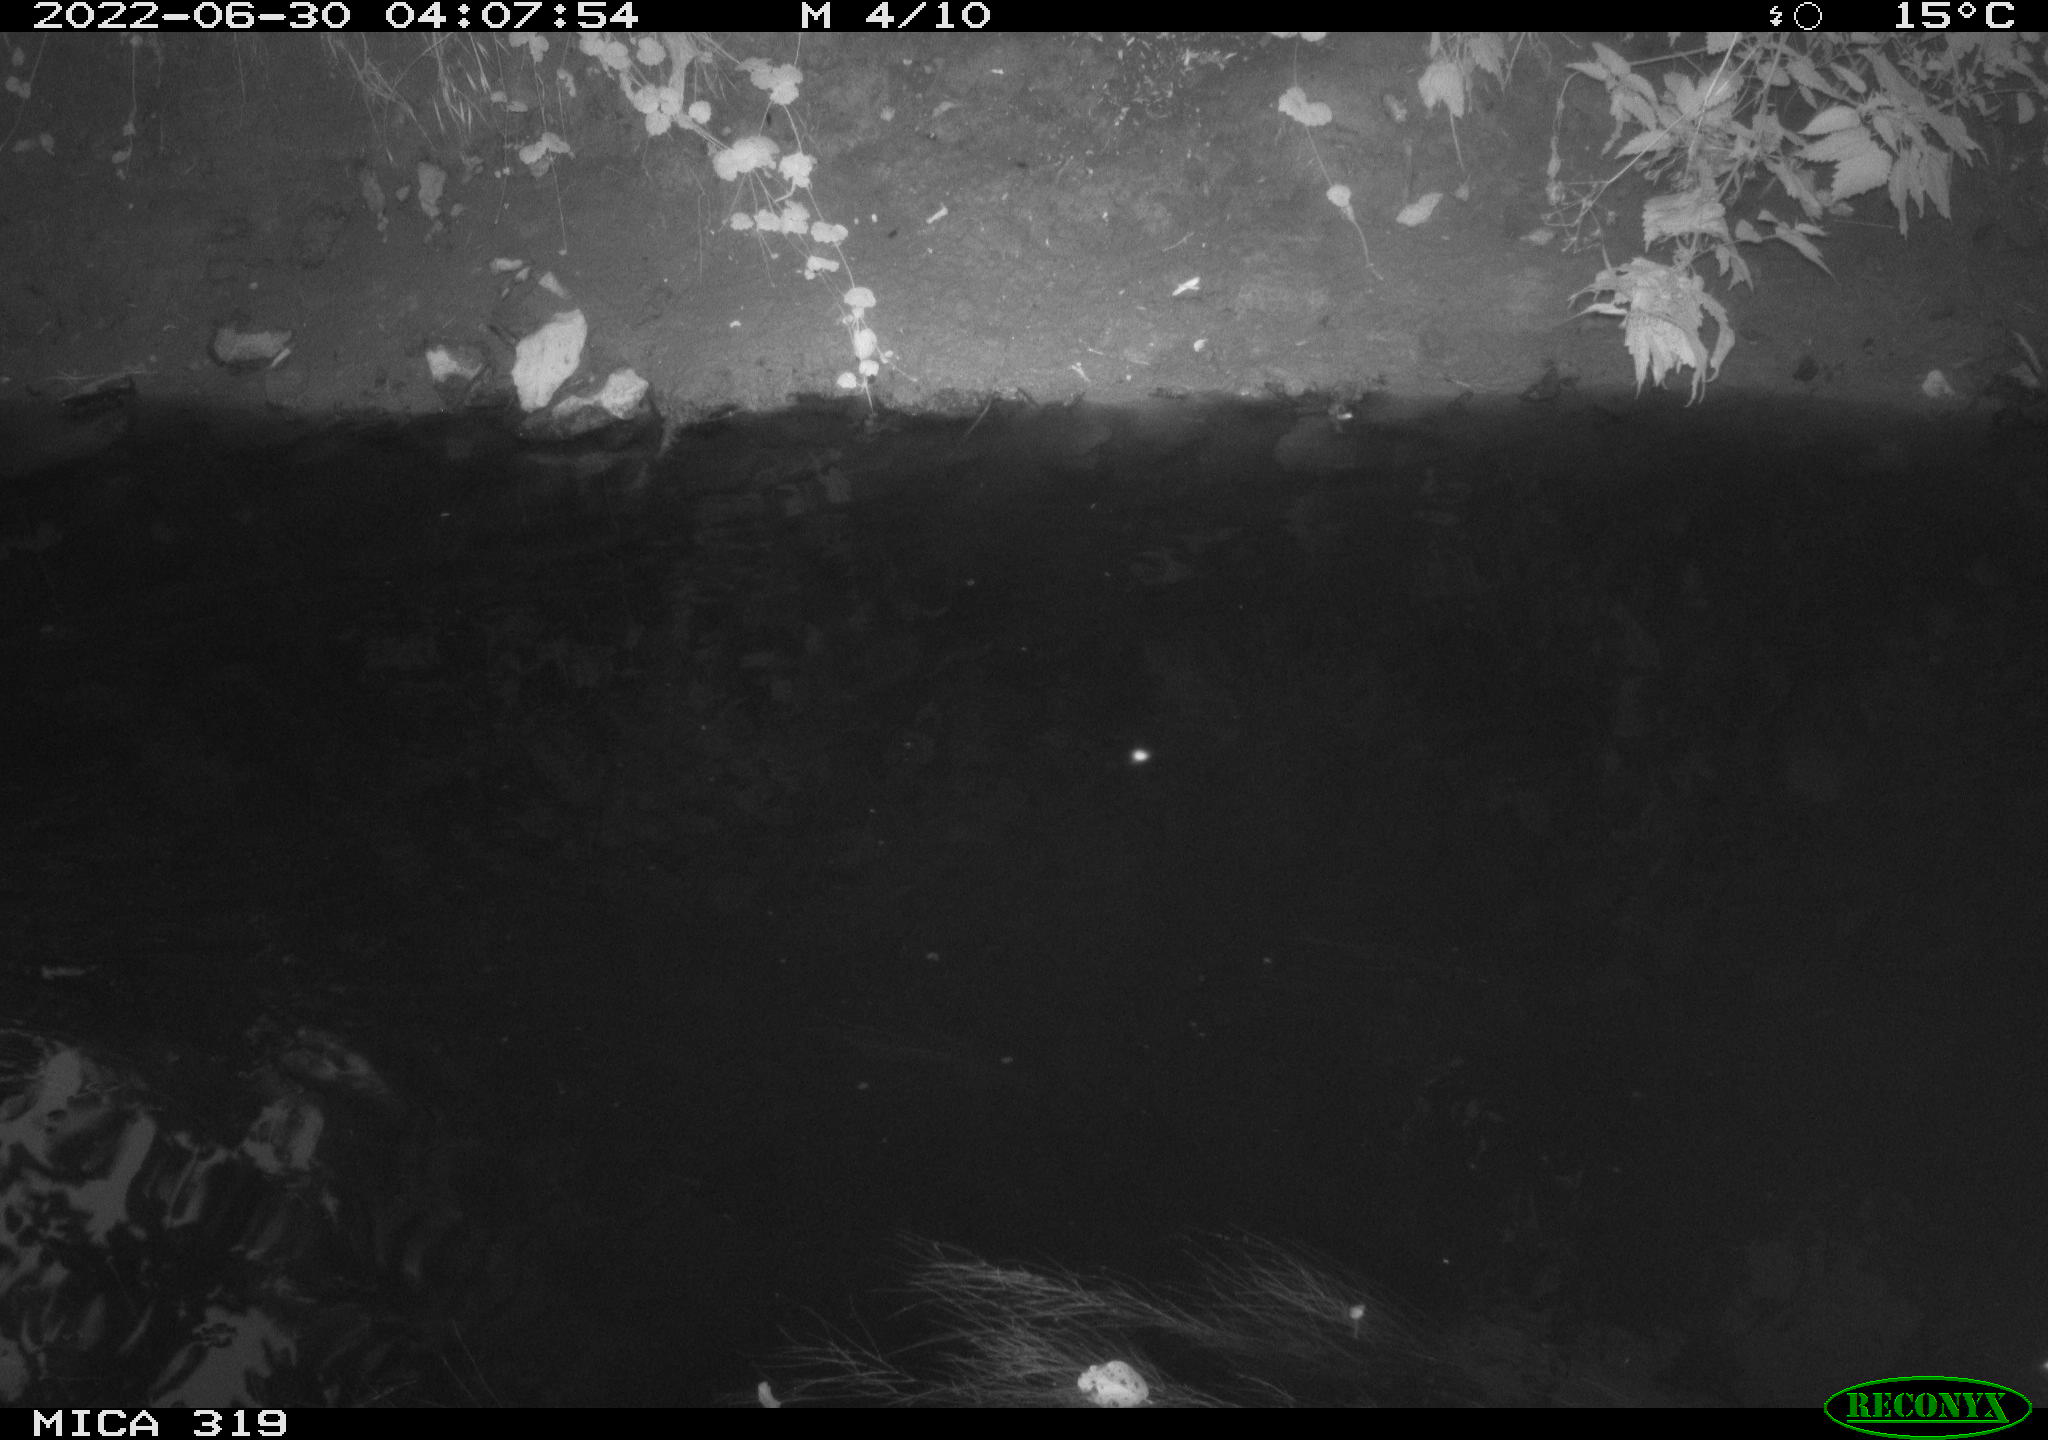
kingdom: Animalia
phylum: Chordata
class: Aves
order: Gruiformes
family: Rallidae
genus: Gallinula
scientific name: Gallinula chloropus
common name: Common moorhen
